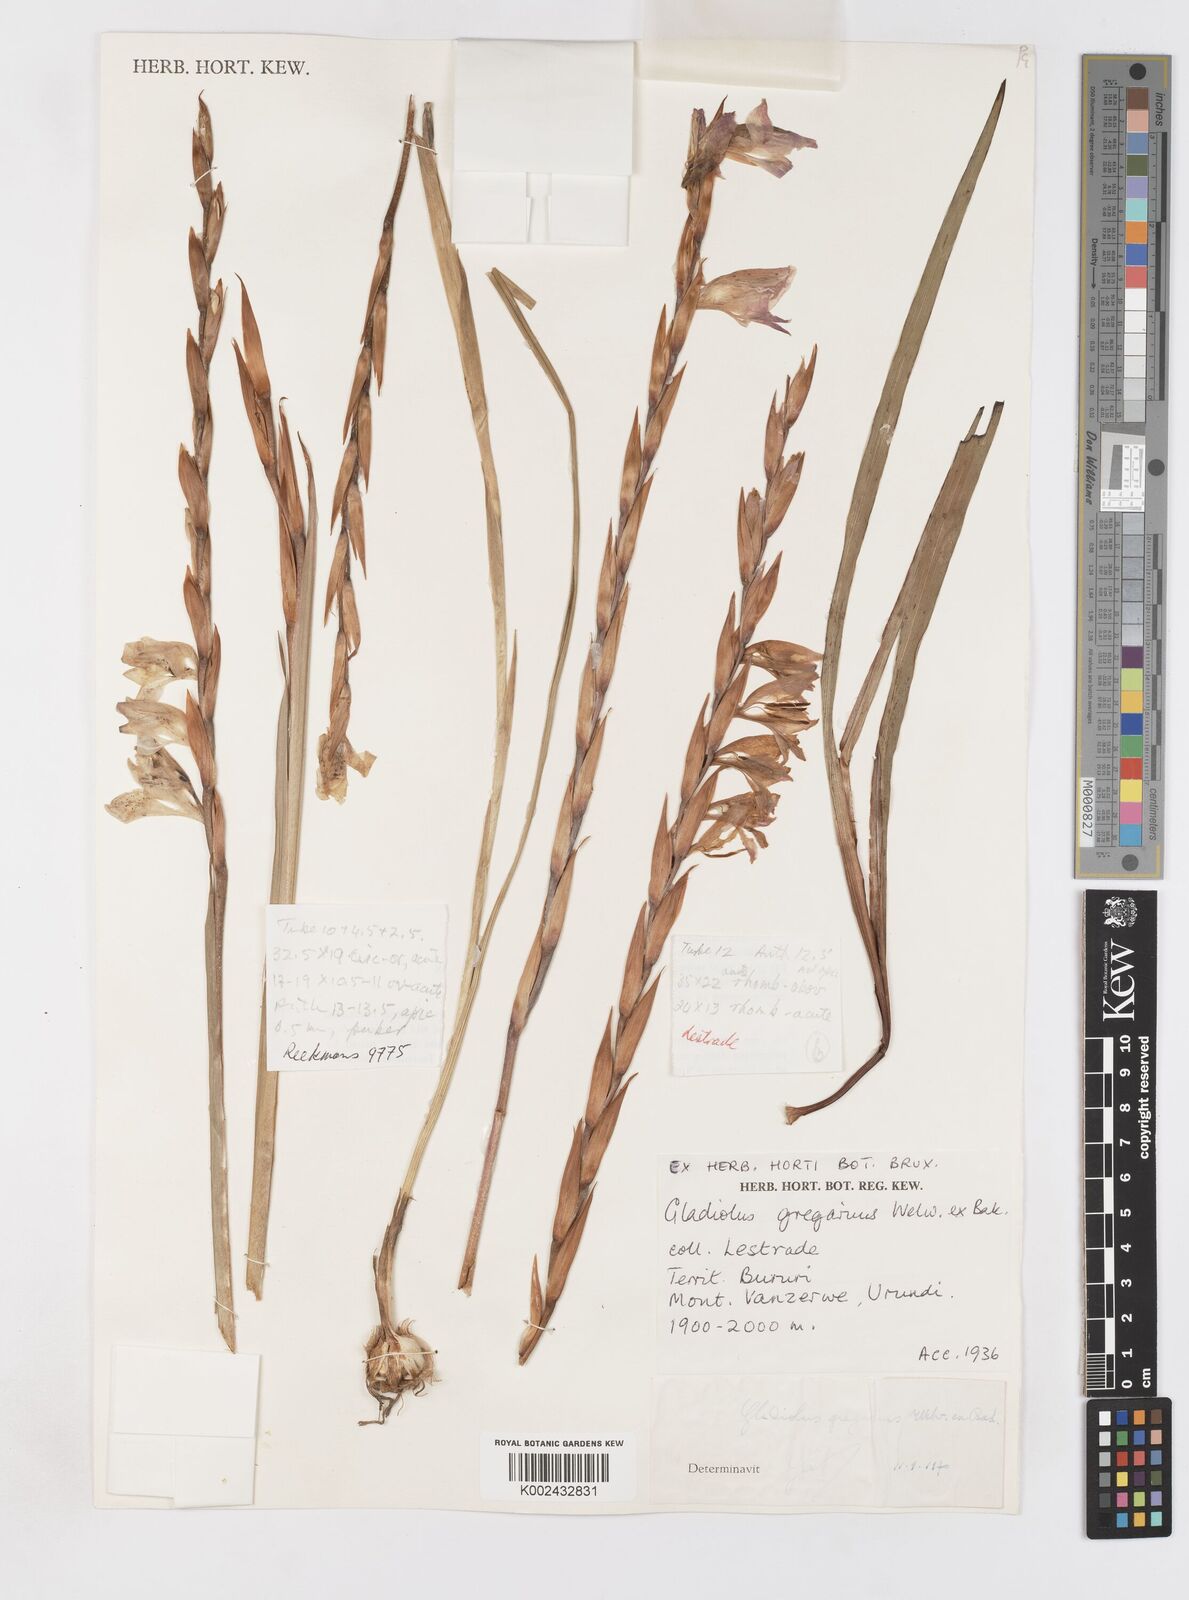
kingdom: Plantae
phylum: Tracheophyta
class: Liliopsida
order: Asparagales
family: Iridaceae
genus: Gladiolus
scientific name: Gladiolus gregarius
